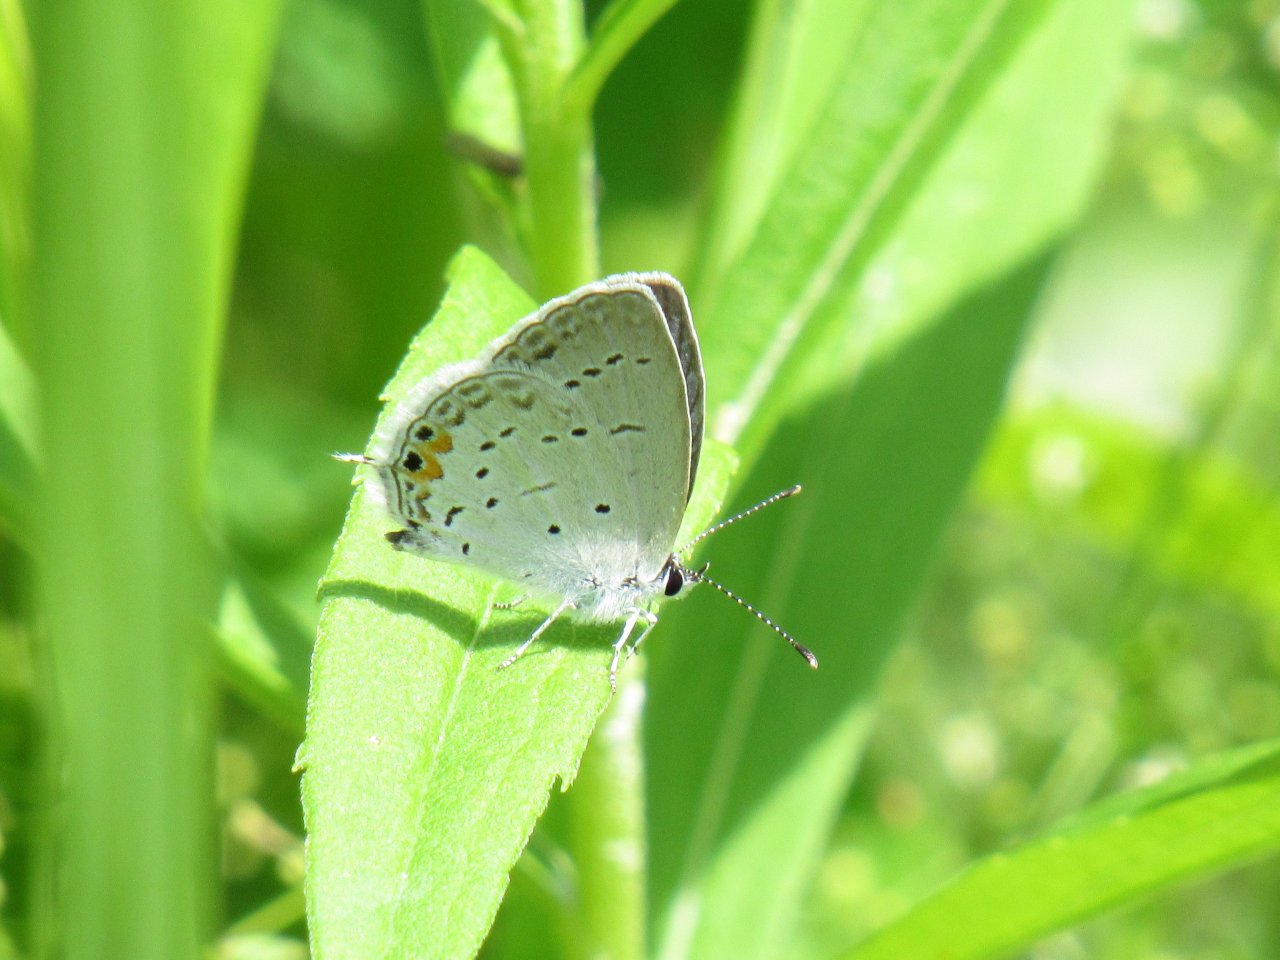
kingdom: Animalia
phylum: Arthropoda
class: Insecta
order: Lepidoptera
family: Lycaenidae
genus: Elkalyce
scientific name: Elkalyce comyntas
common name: Eastern Tailed-Blue
